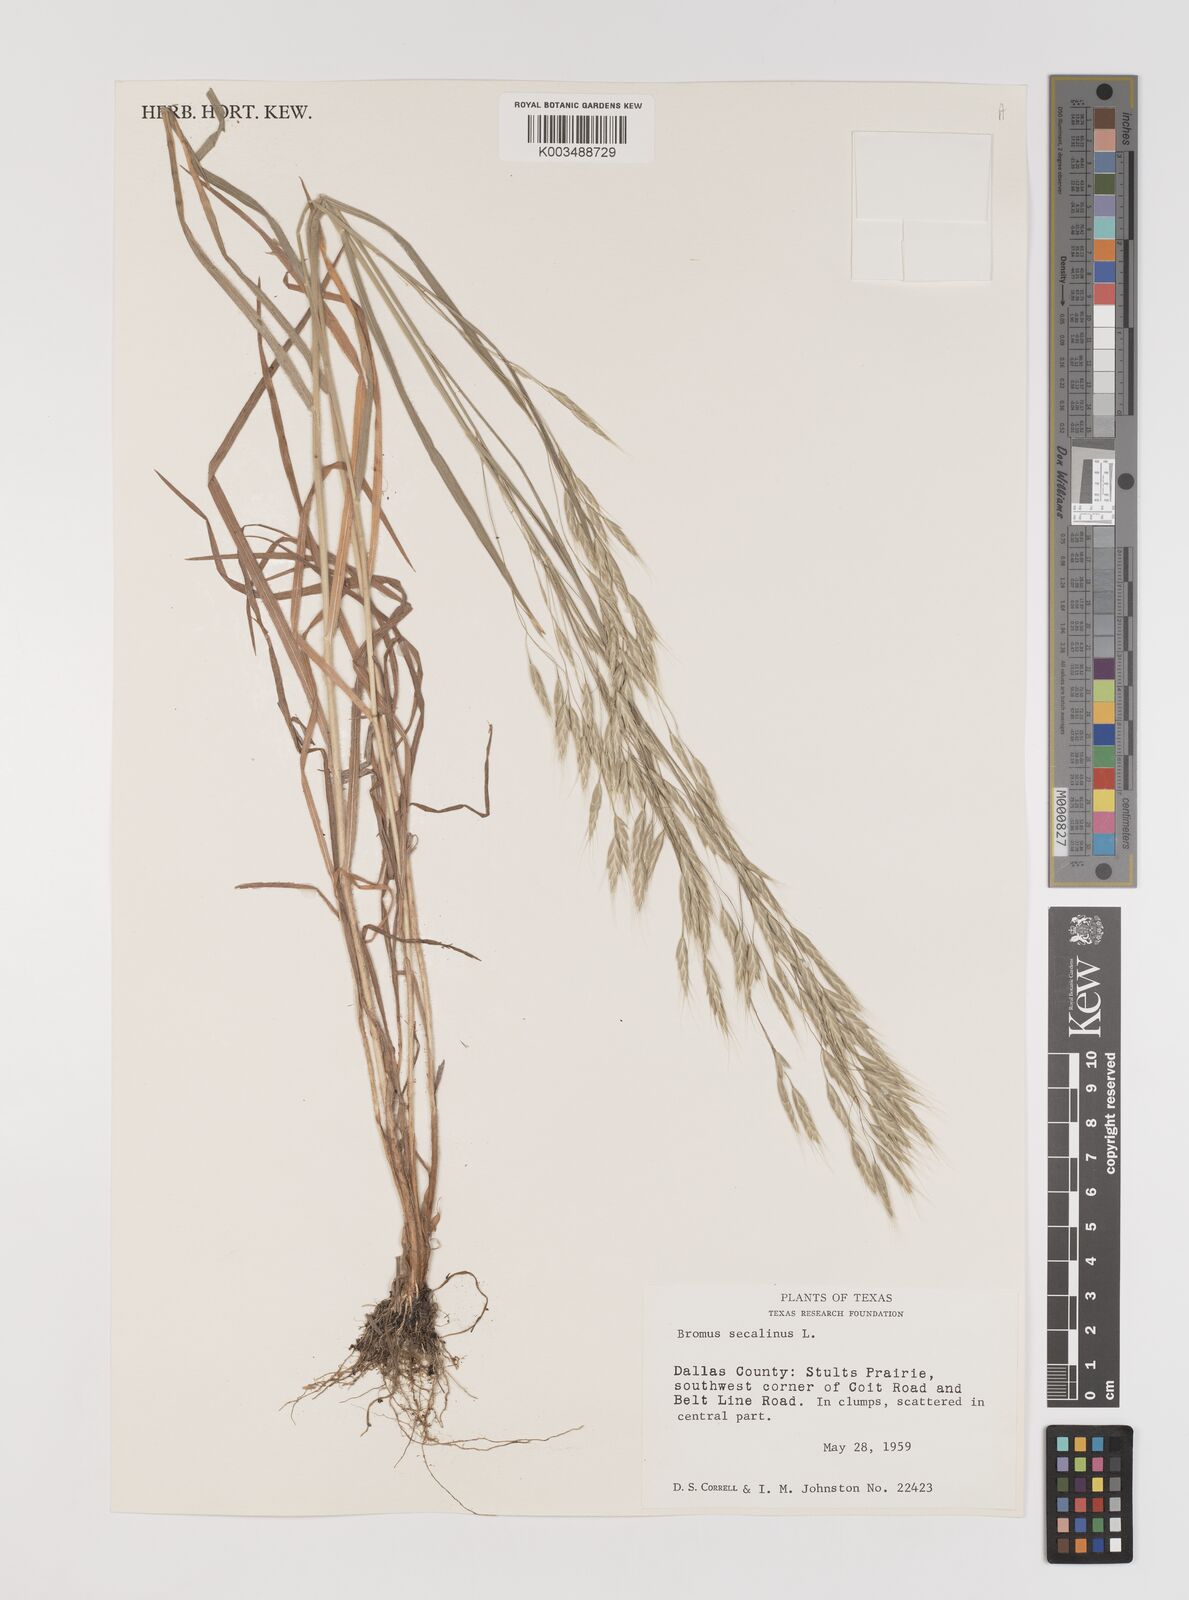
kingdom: Plantae
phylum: Tracheophyta
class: Liliopsida
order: Poales
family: Poaceae
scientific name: Poaceae
